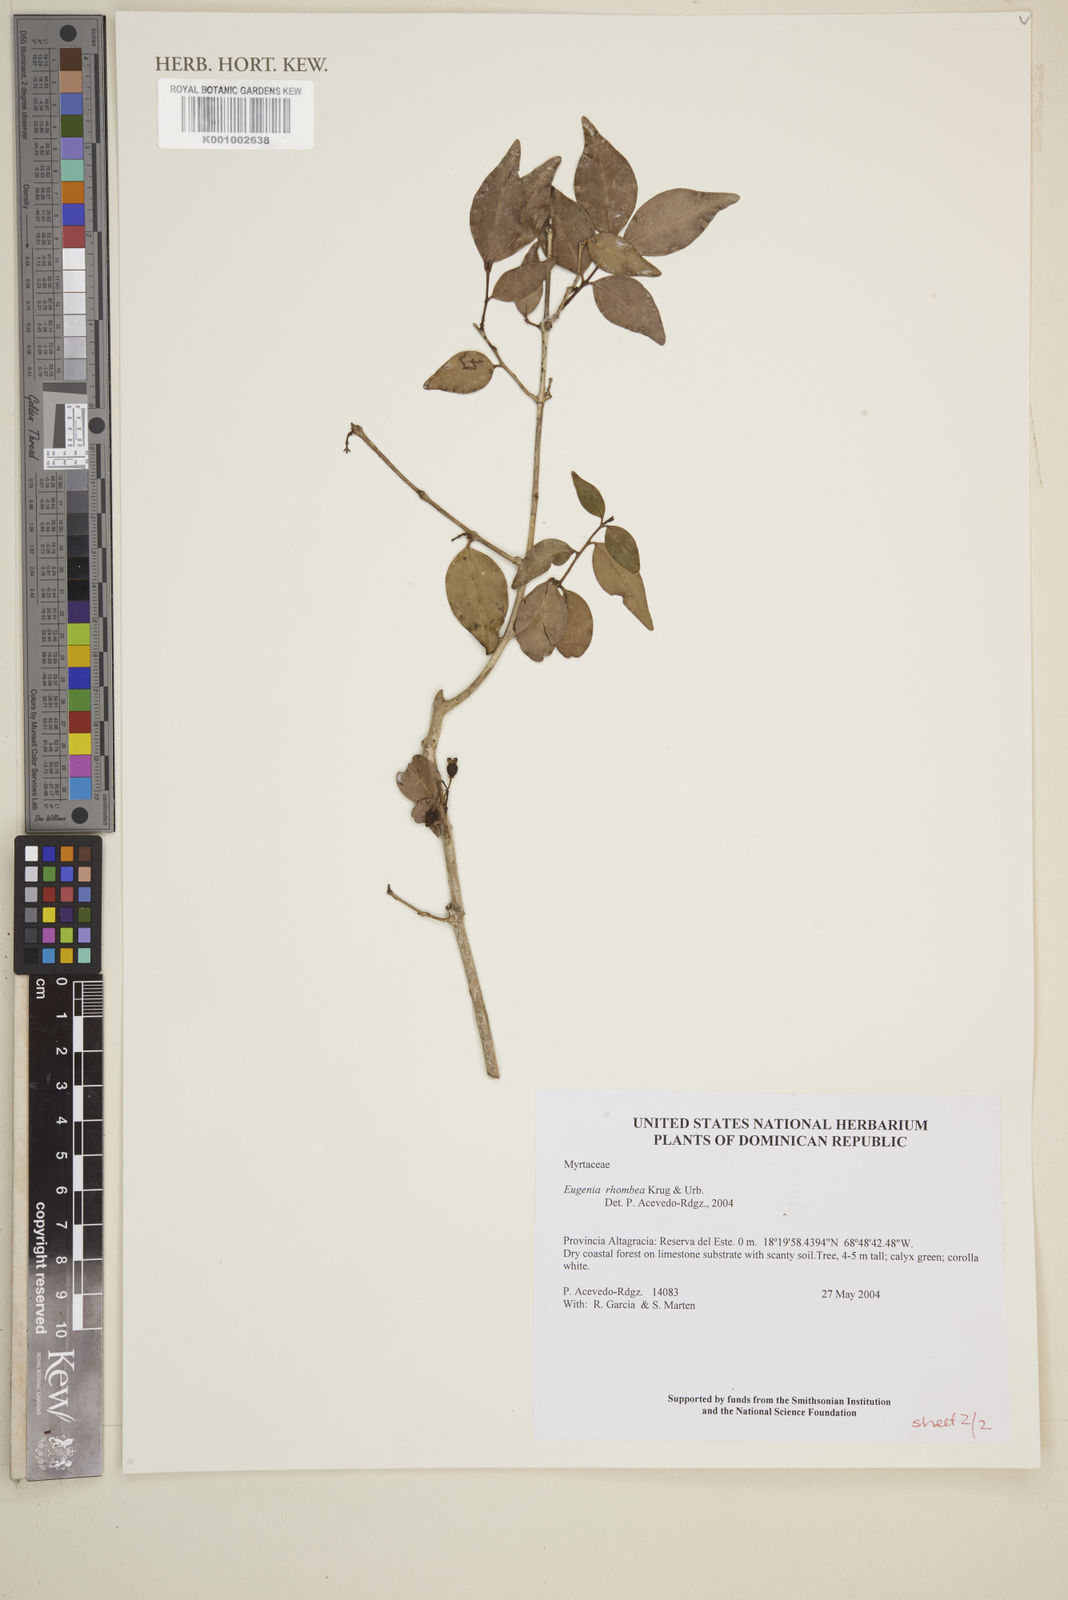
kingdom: Plantae
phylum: Tracheophyta
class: Magnoliopsida
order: Myrtales
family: Myrtaceae
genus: Eugenia
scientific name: Eugenia rhombea
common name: Pigeon berry
